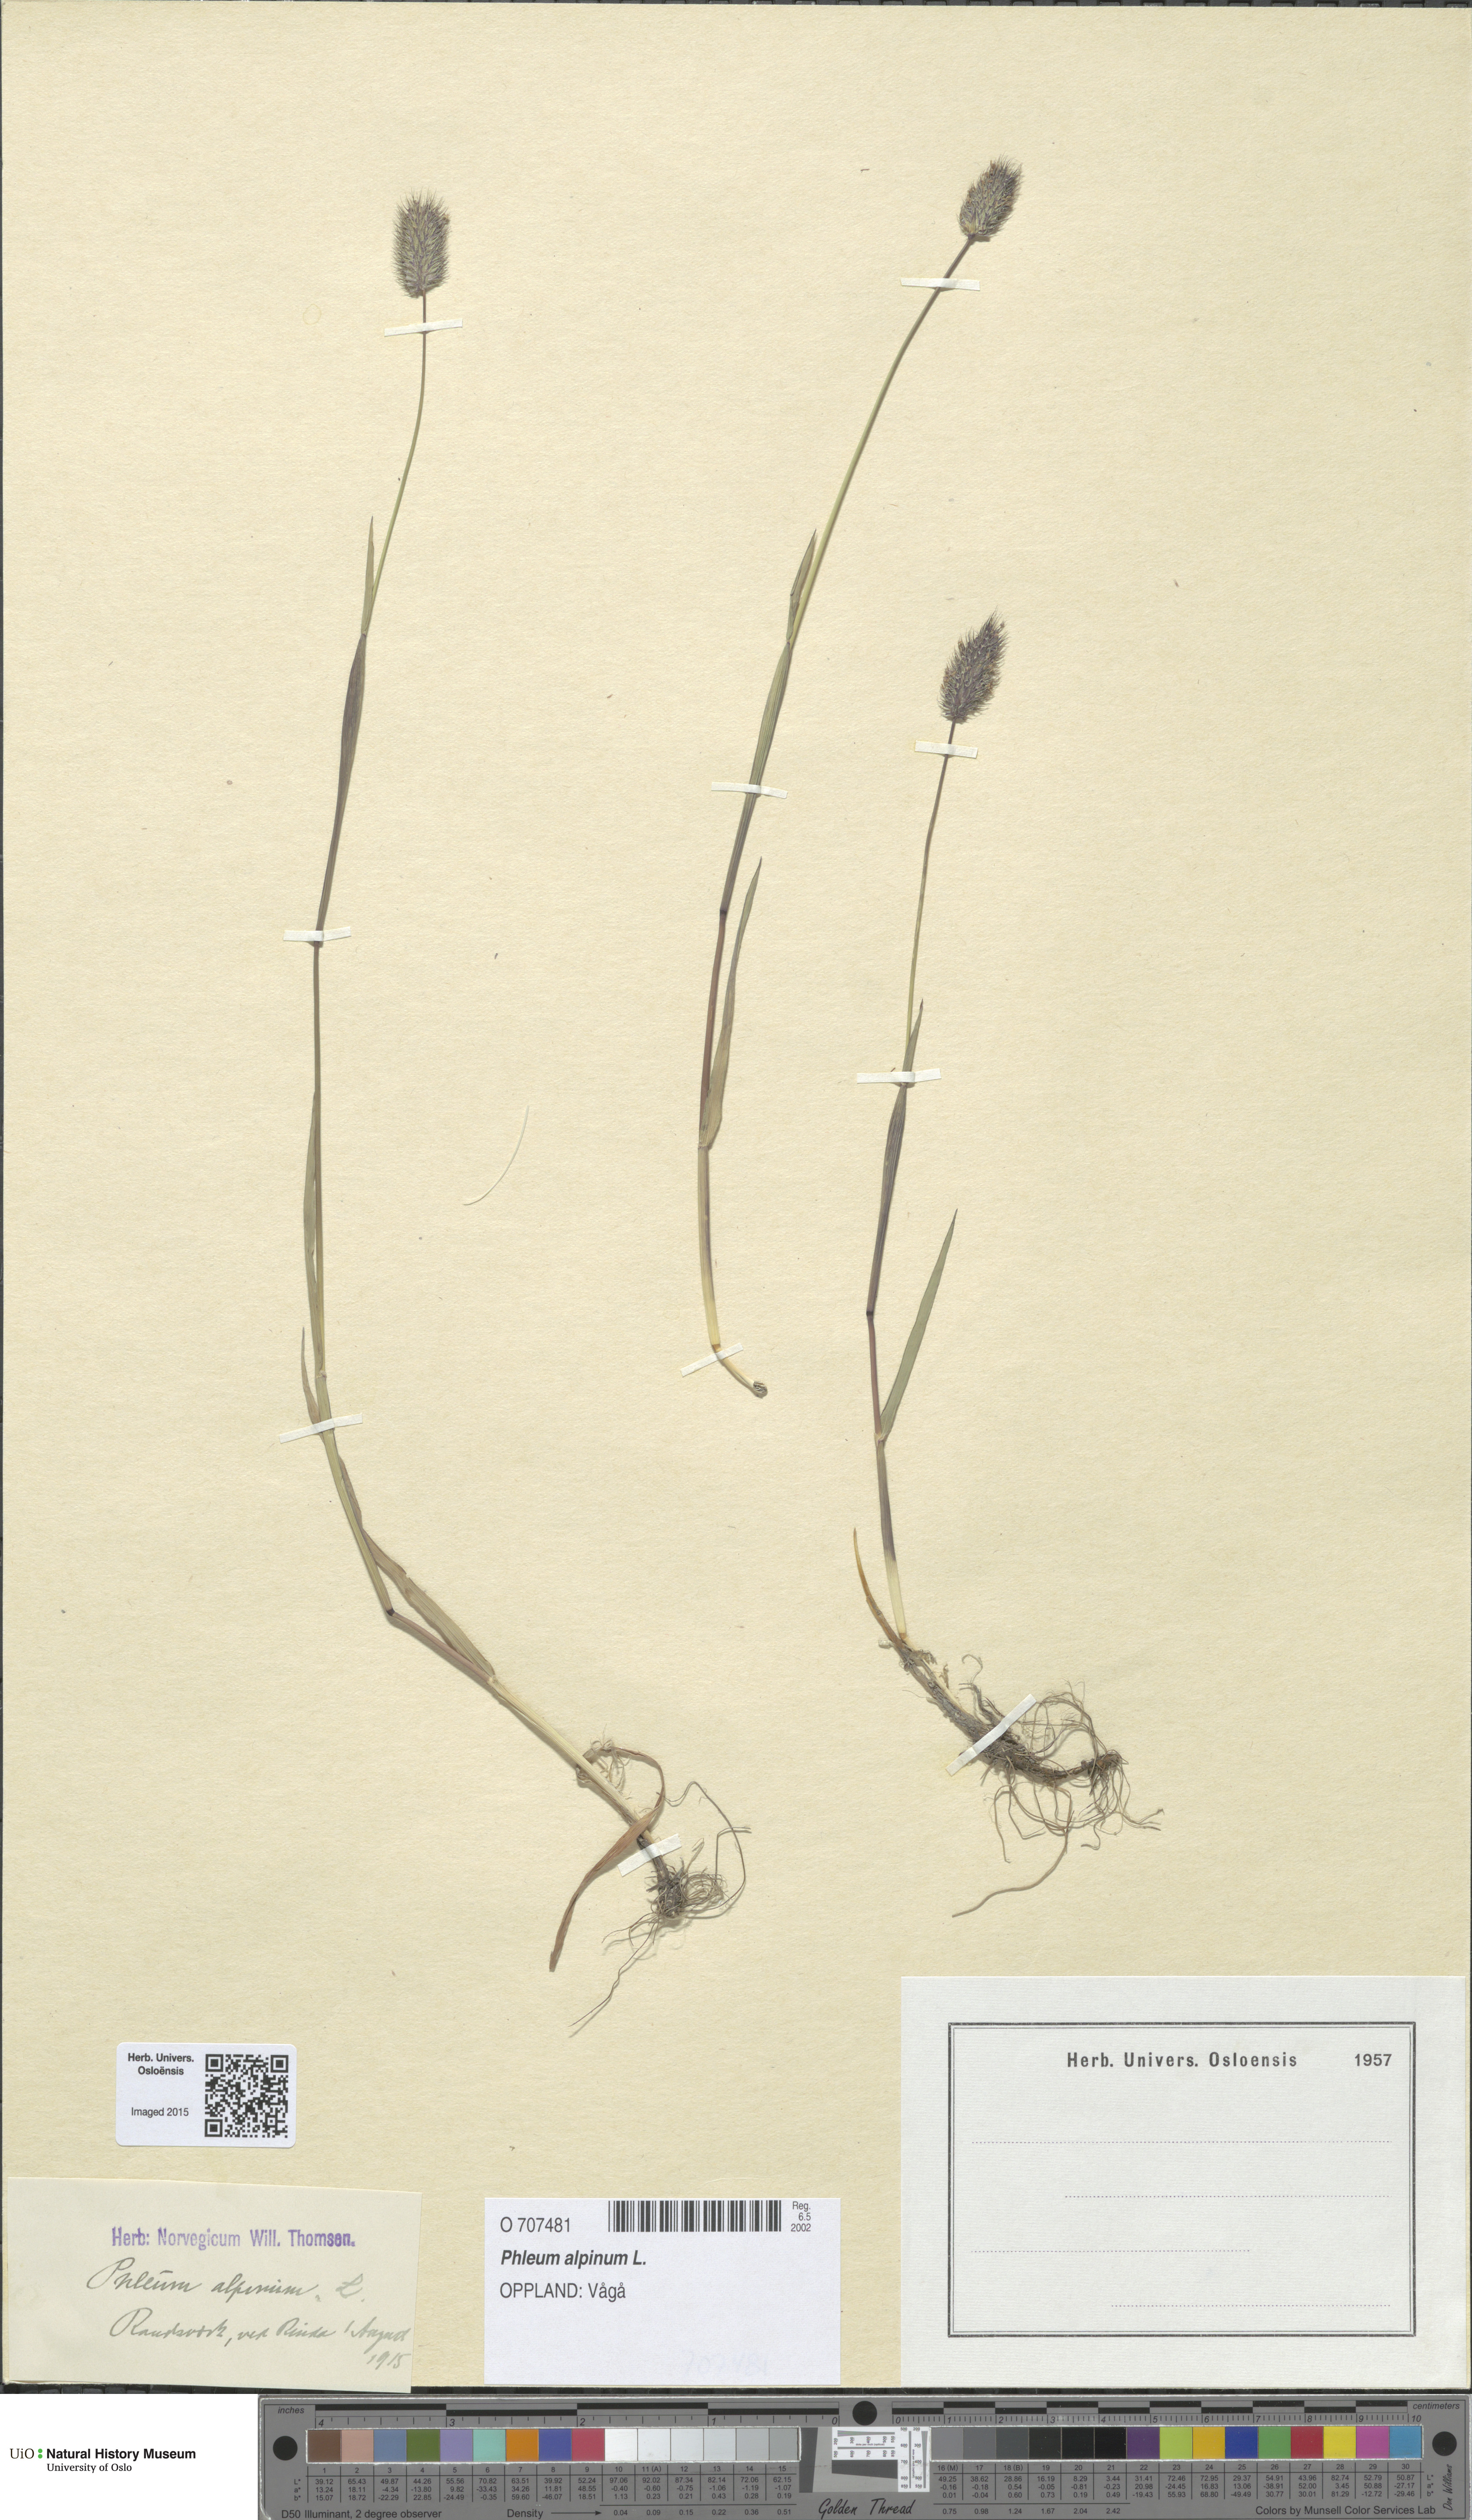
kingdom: Plantae
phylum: Tracheophyta
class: Liliopsida
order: Poales
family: Poaceae
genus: Phleum
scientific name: Phleum alpinum
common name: Alpine cat's-tail
